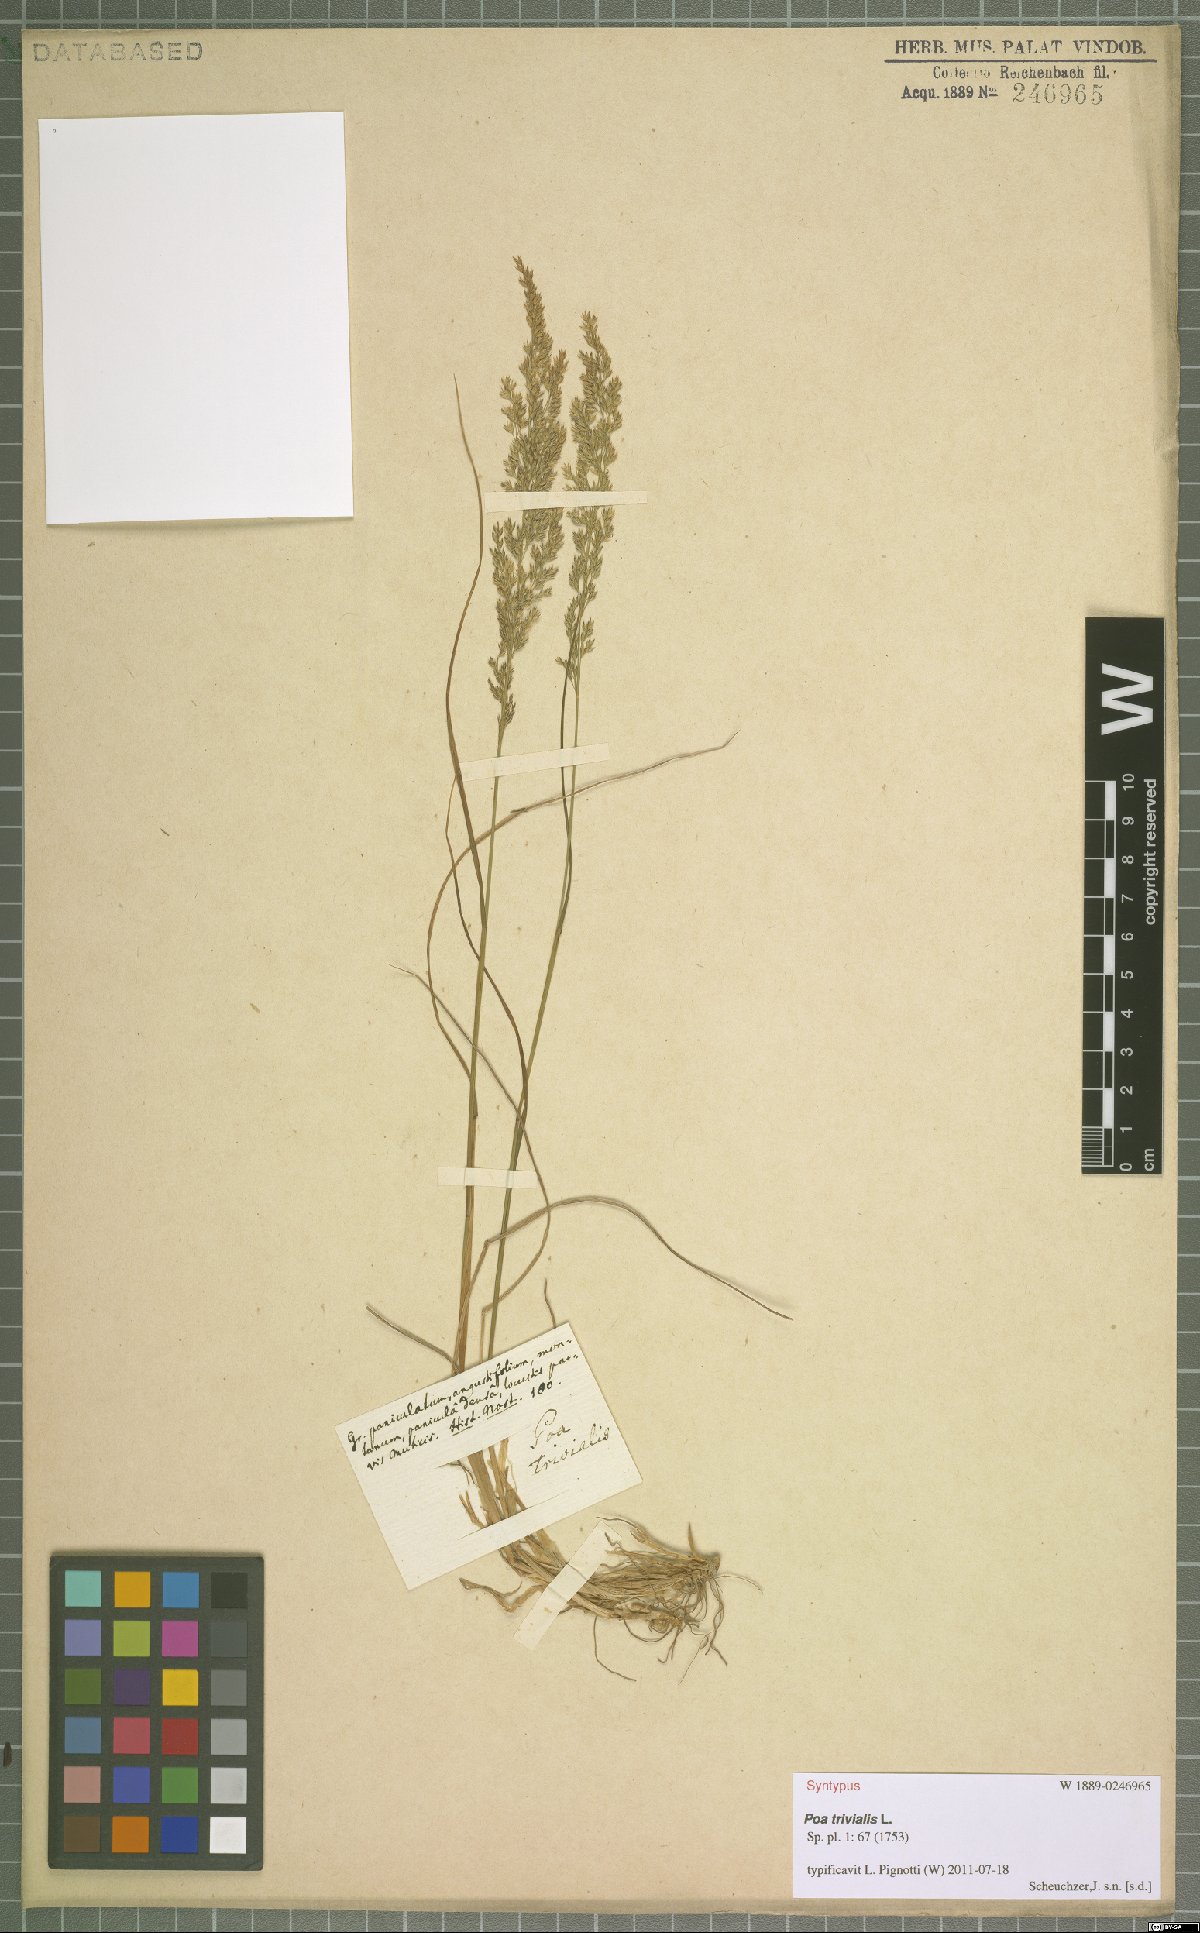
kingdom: Plantae
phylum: Tracheophyta
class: Liliopsida
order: Poales
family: Poaceae
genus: Poa
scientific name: Poa trivialis
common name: Rough bluegrass
